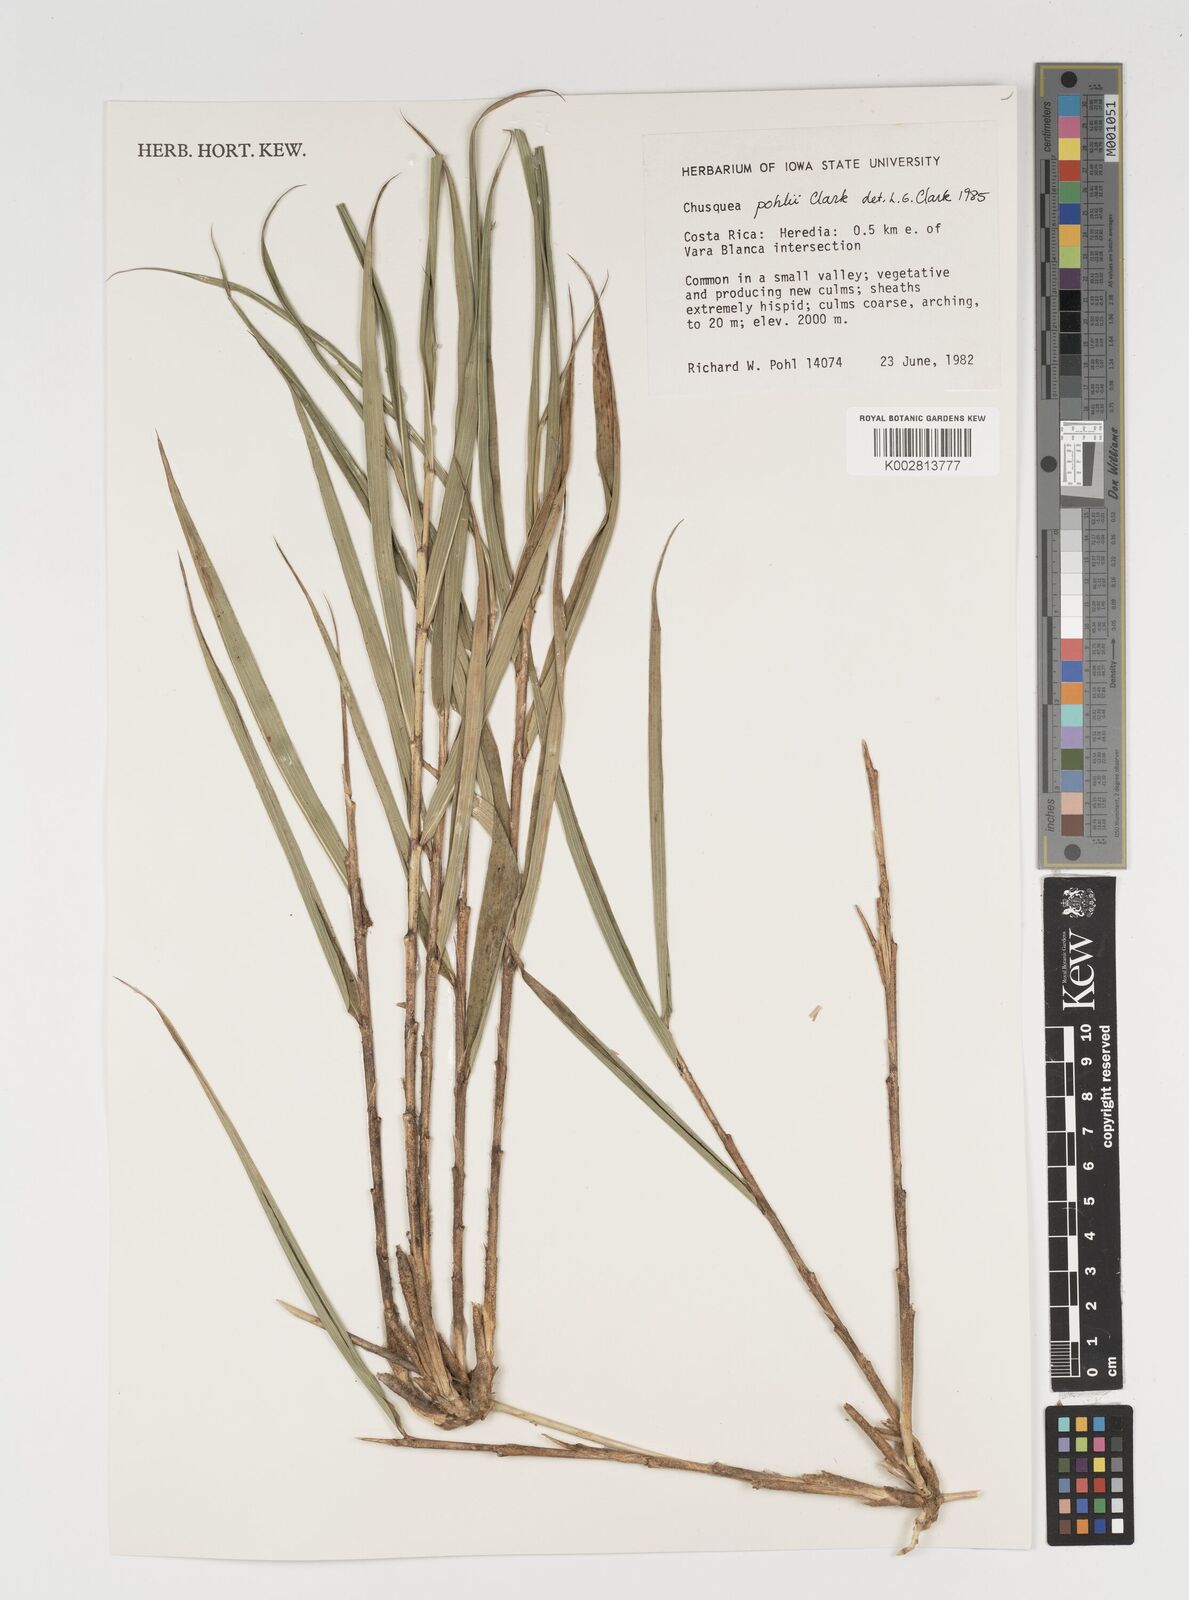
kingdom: Plantae
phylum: Tracheophyta
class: Liliopsida
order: Poales
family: Poaceae
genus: Chusquea
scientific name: Chusquea pohlii
